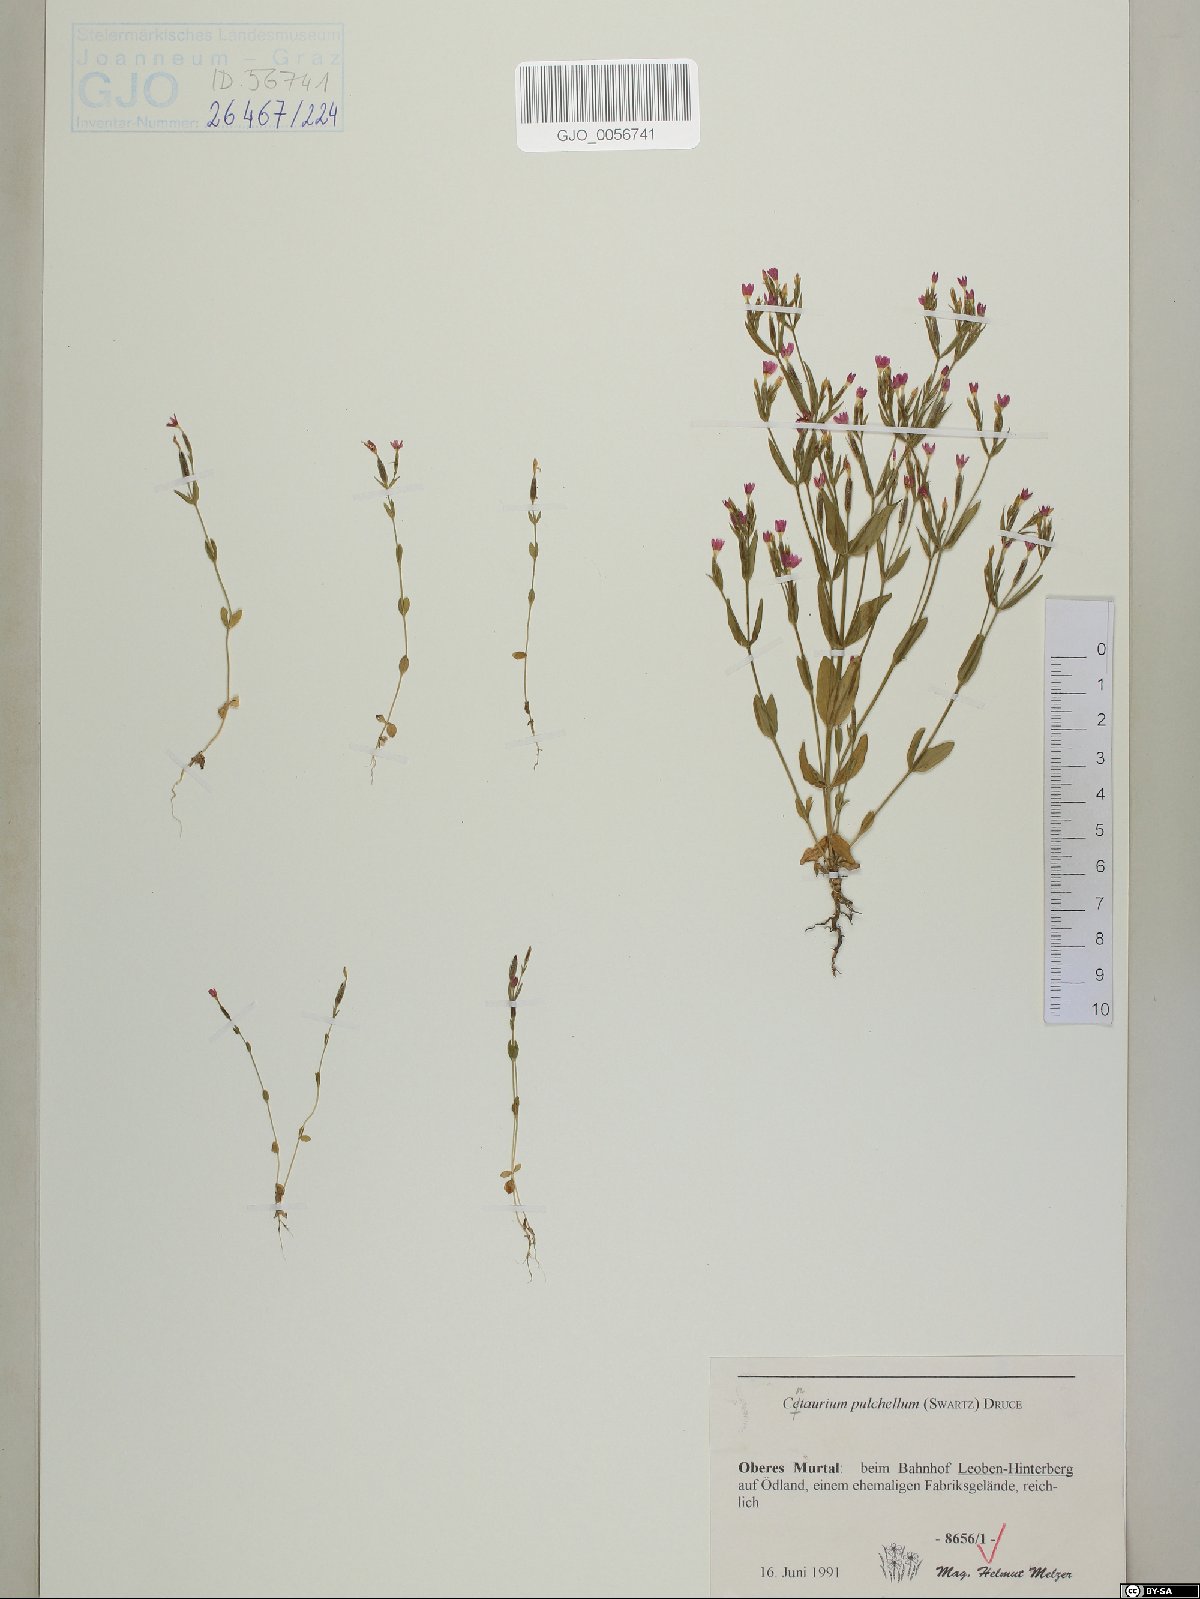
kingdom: Plantae
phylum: Tracheophyta
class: Magnoliopsida
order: Gentianales
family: Gentianaceae
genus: Centaurium
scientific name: Centaurium pulchellum
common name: Lesser centaury
